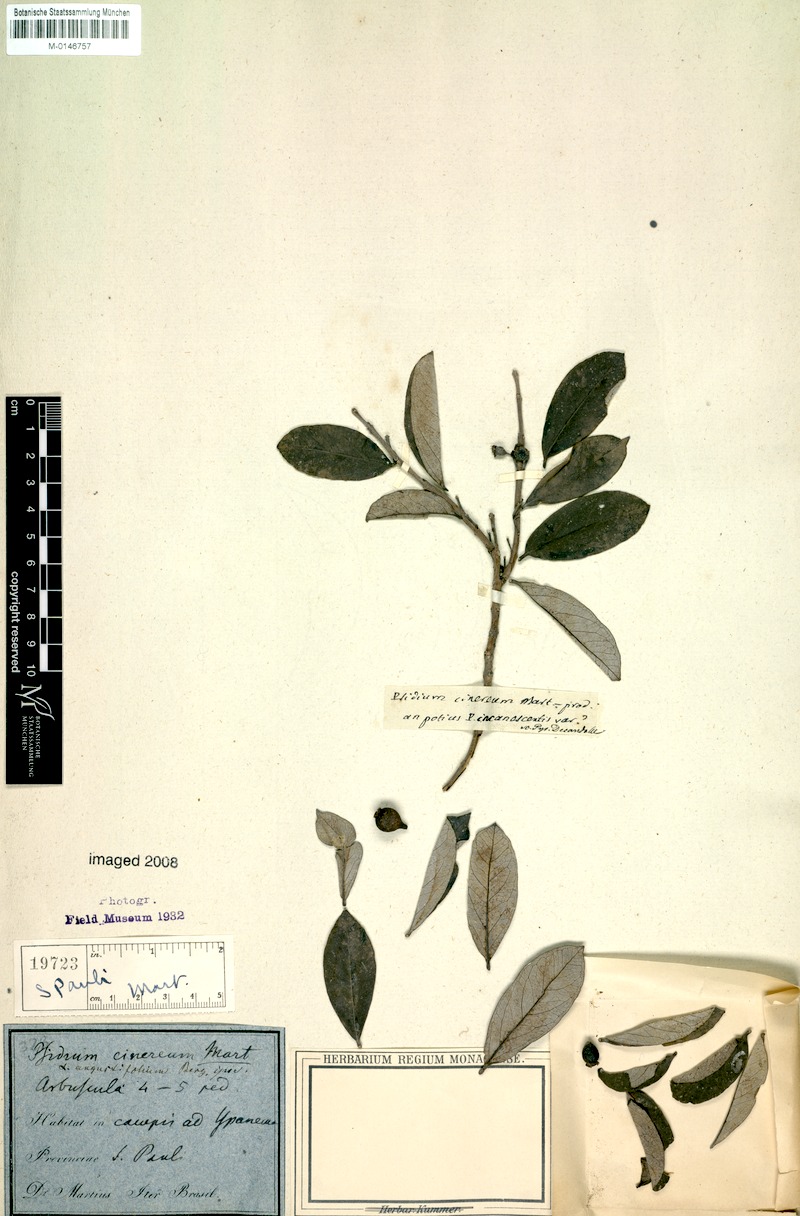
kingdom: Plantae
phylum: Tracheophyta
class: Magnoliopsida
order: Myrtales
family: Myrtaceae
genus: Psidium
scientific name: Psidium grandifolium
